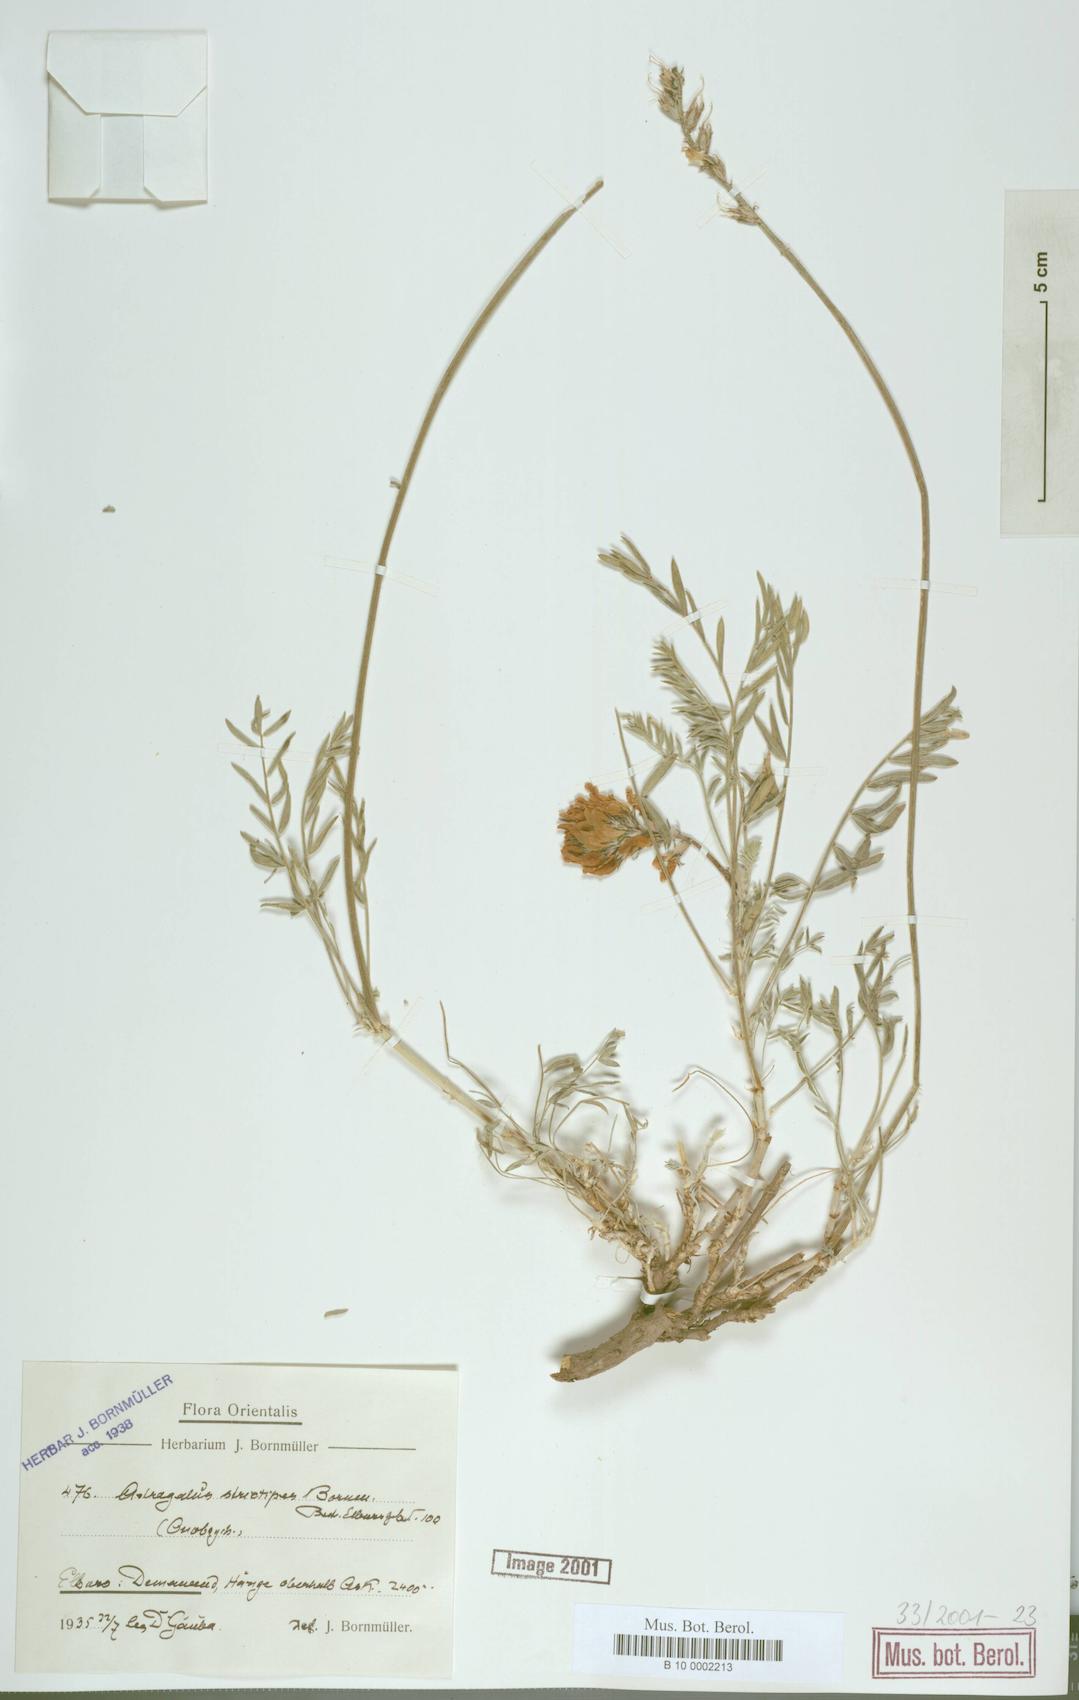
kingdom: Plantae
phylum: Tracheophyta
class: Magnoliopsida
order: Fabales
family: Fabaceae
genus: Astragalus
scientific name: Astragalus lilacinus
